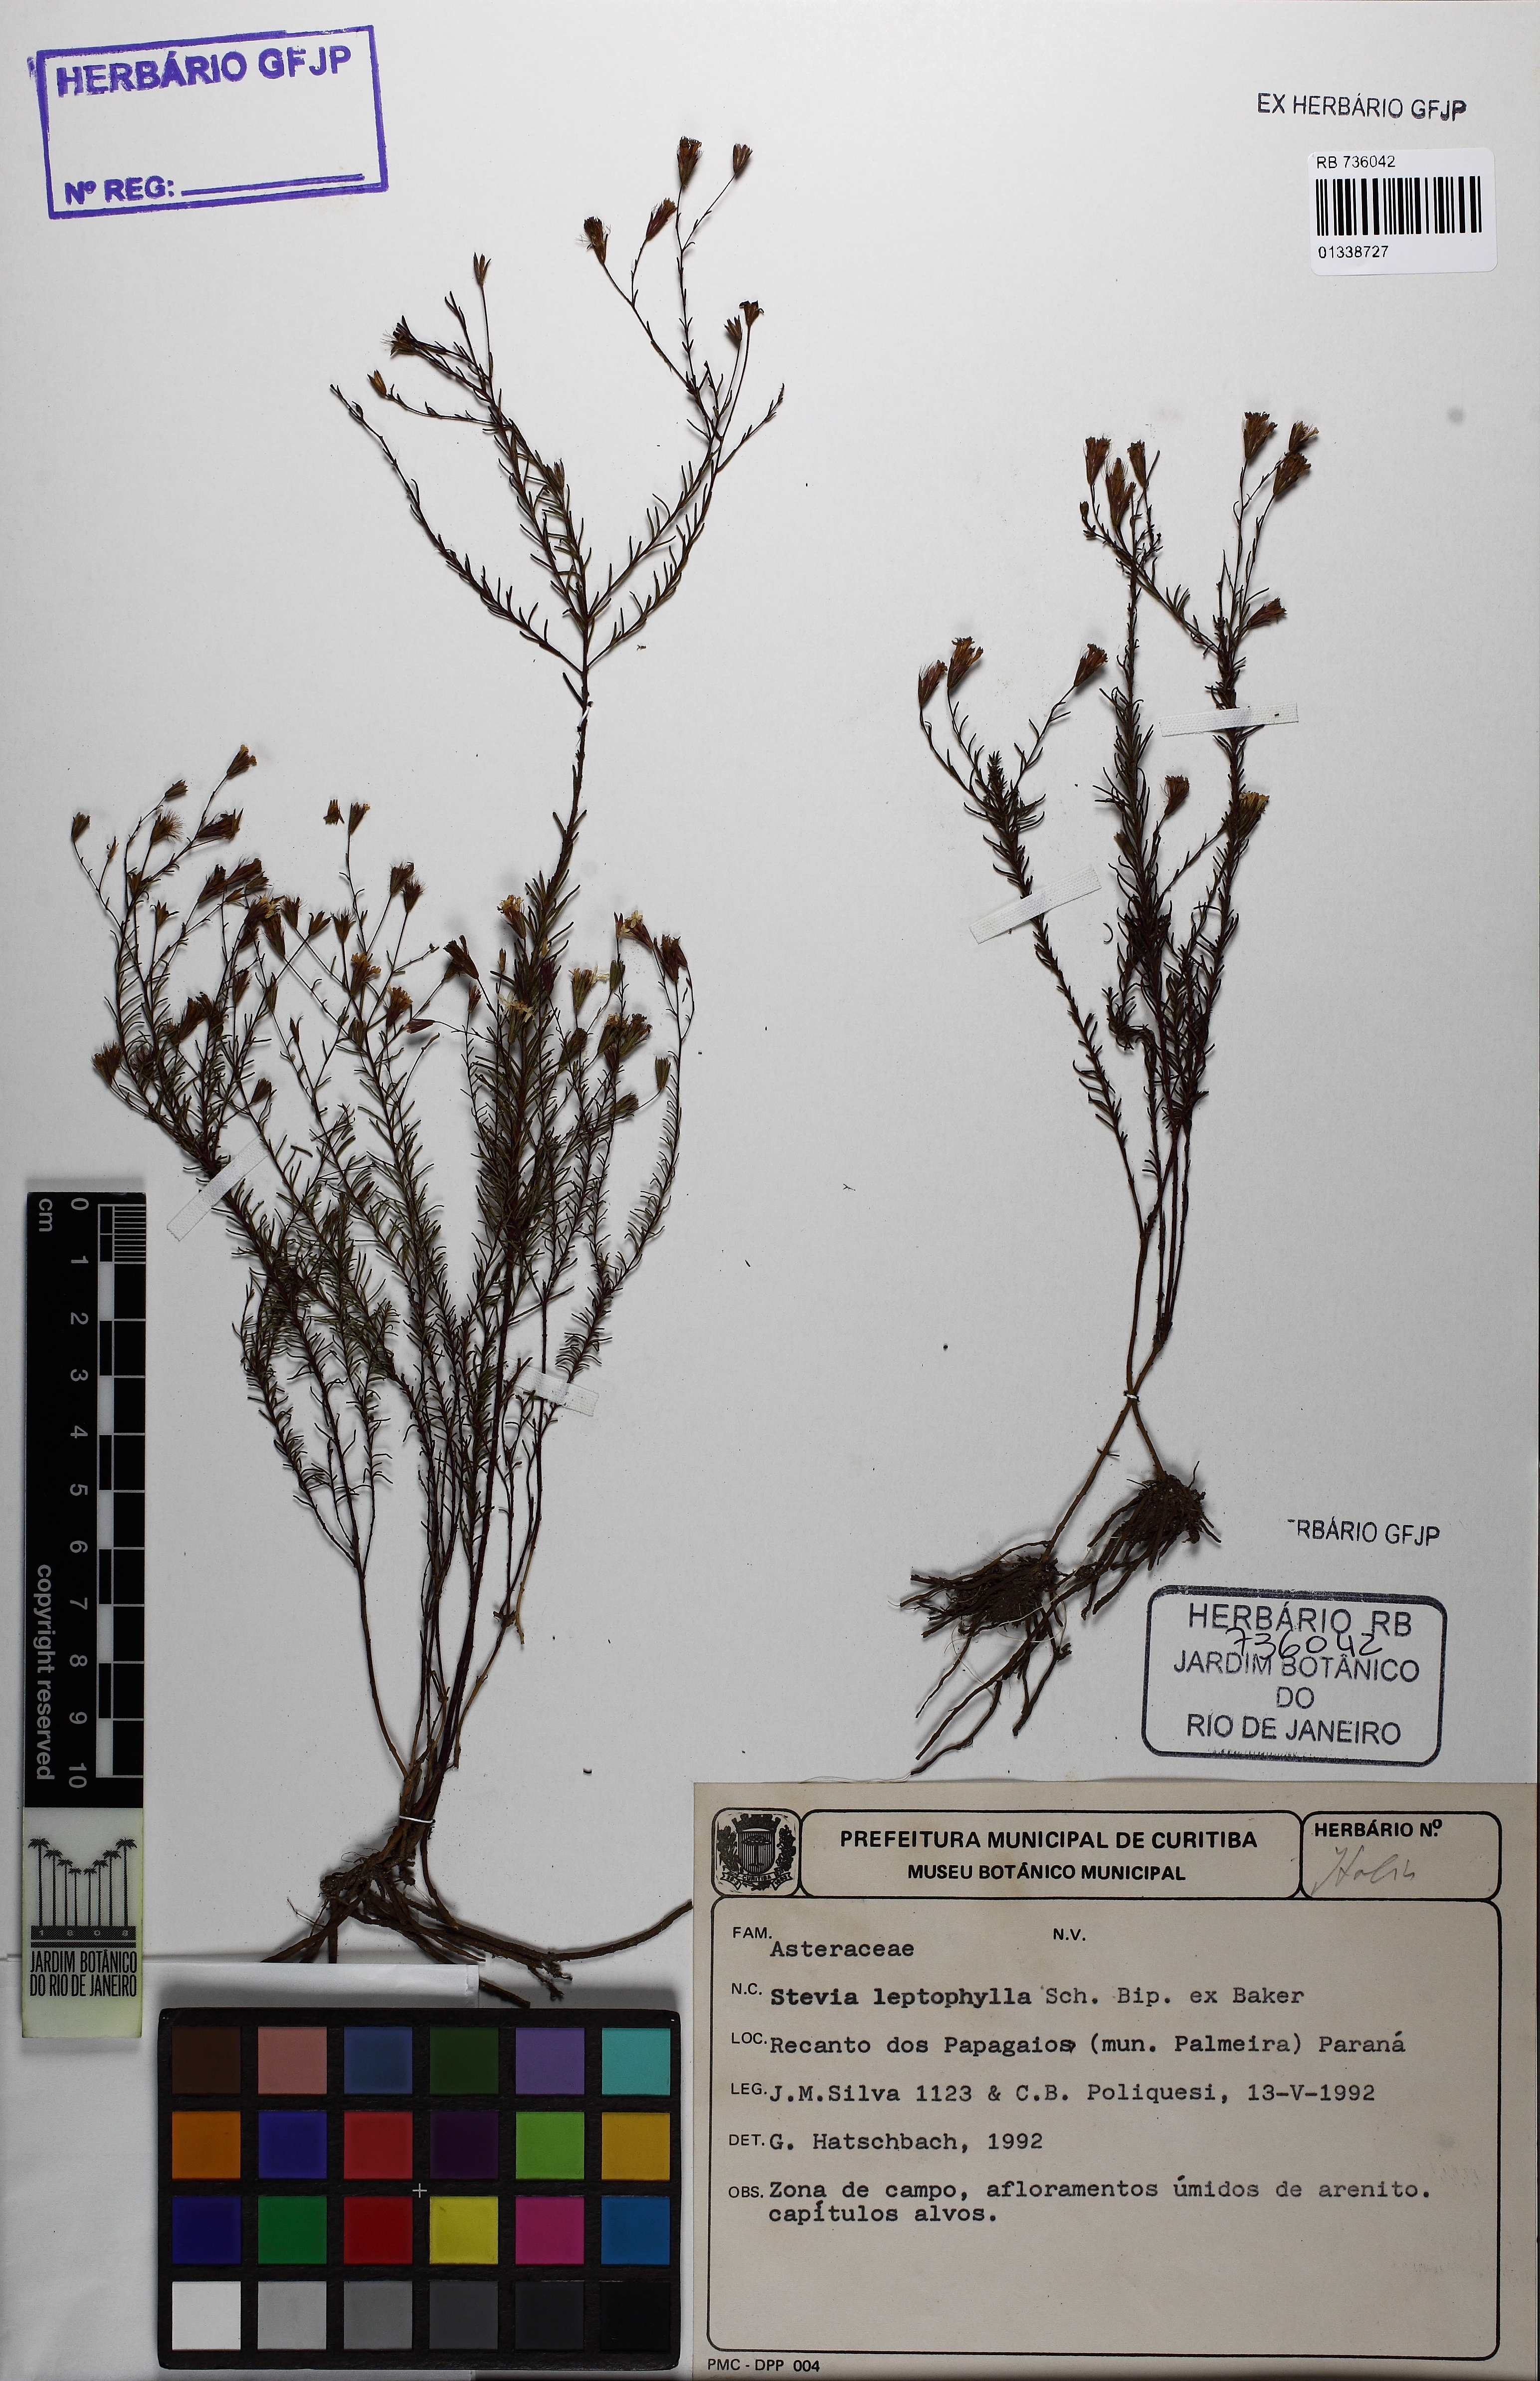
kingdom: Plantae
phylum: Tracheophyta
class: Magnoliopsida
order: Asterales
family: Asteraceae
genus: Stevia
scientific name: Stevia leptophylla
